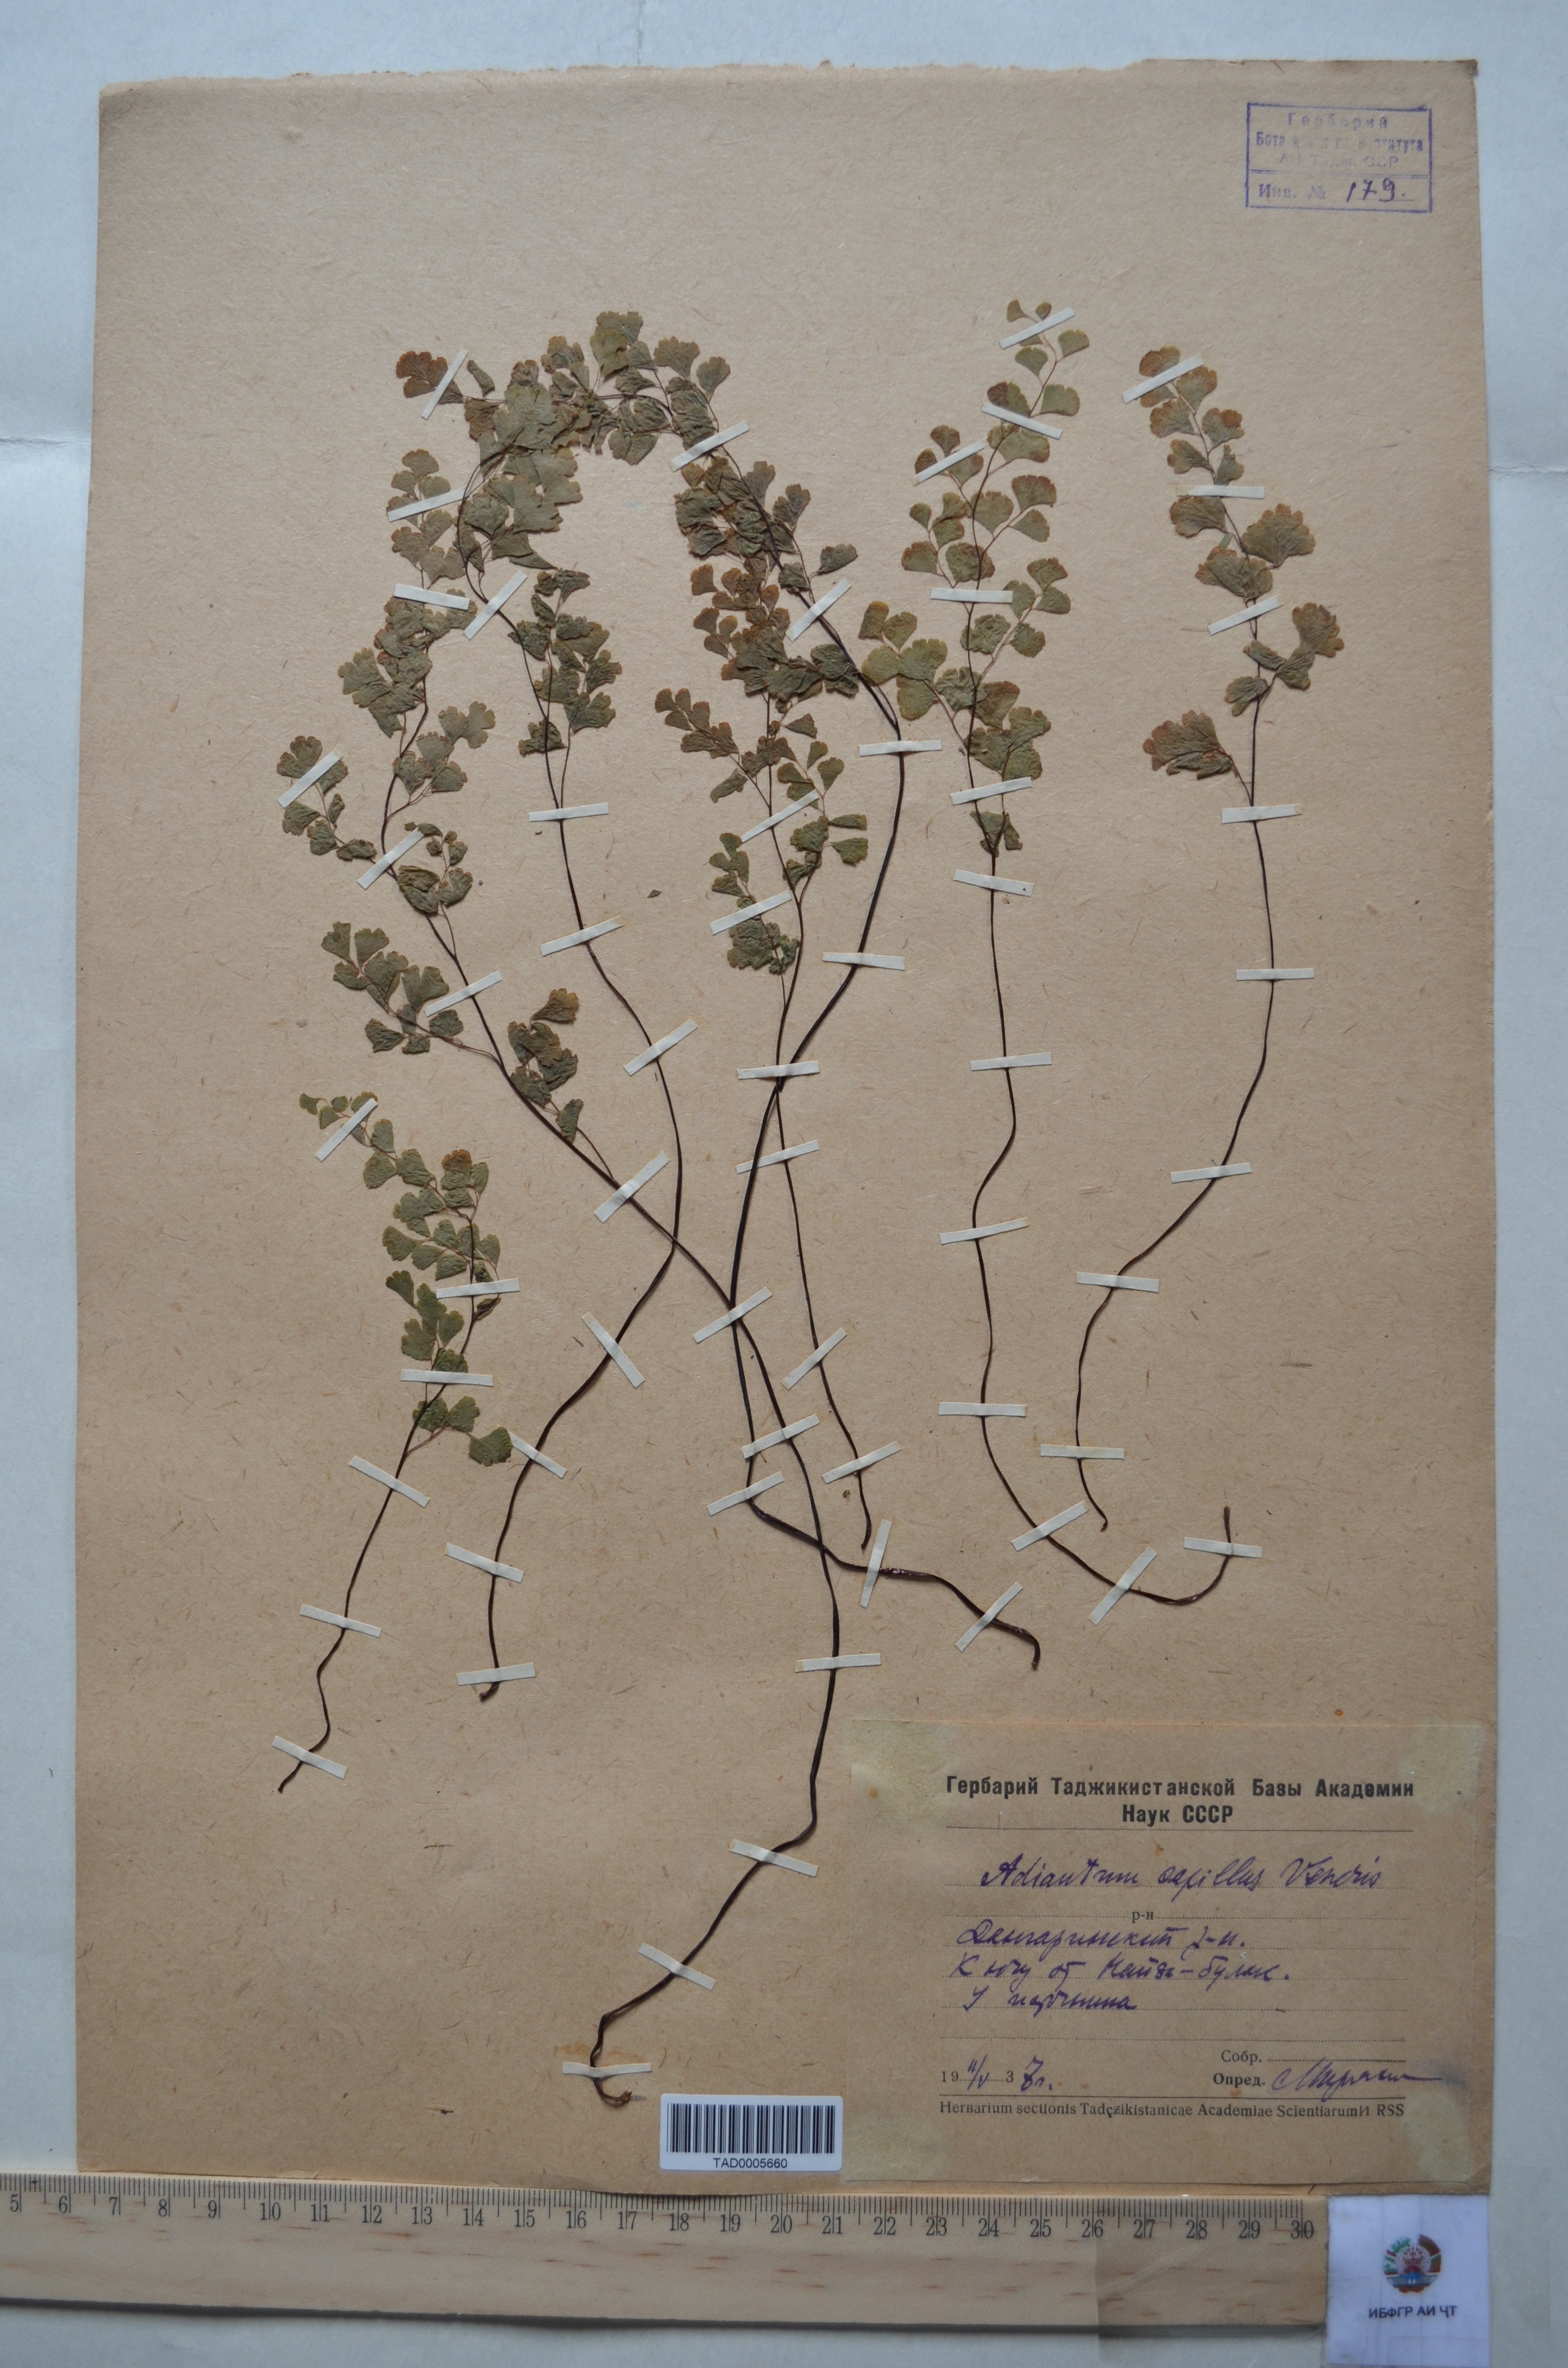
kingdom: Plantae
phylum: Tracheophyta
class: Polypodiopsida
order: Polypodiales
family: Pteridaceae
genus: Adiantum
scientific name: Adiantum capillus-veneris
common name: Maidenhair fern
